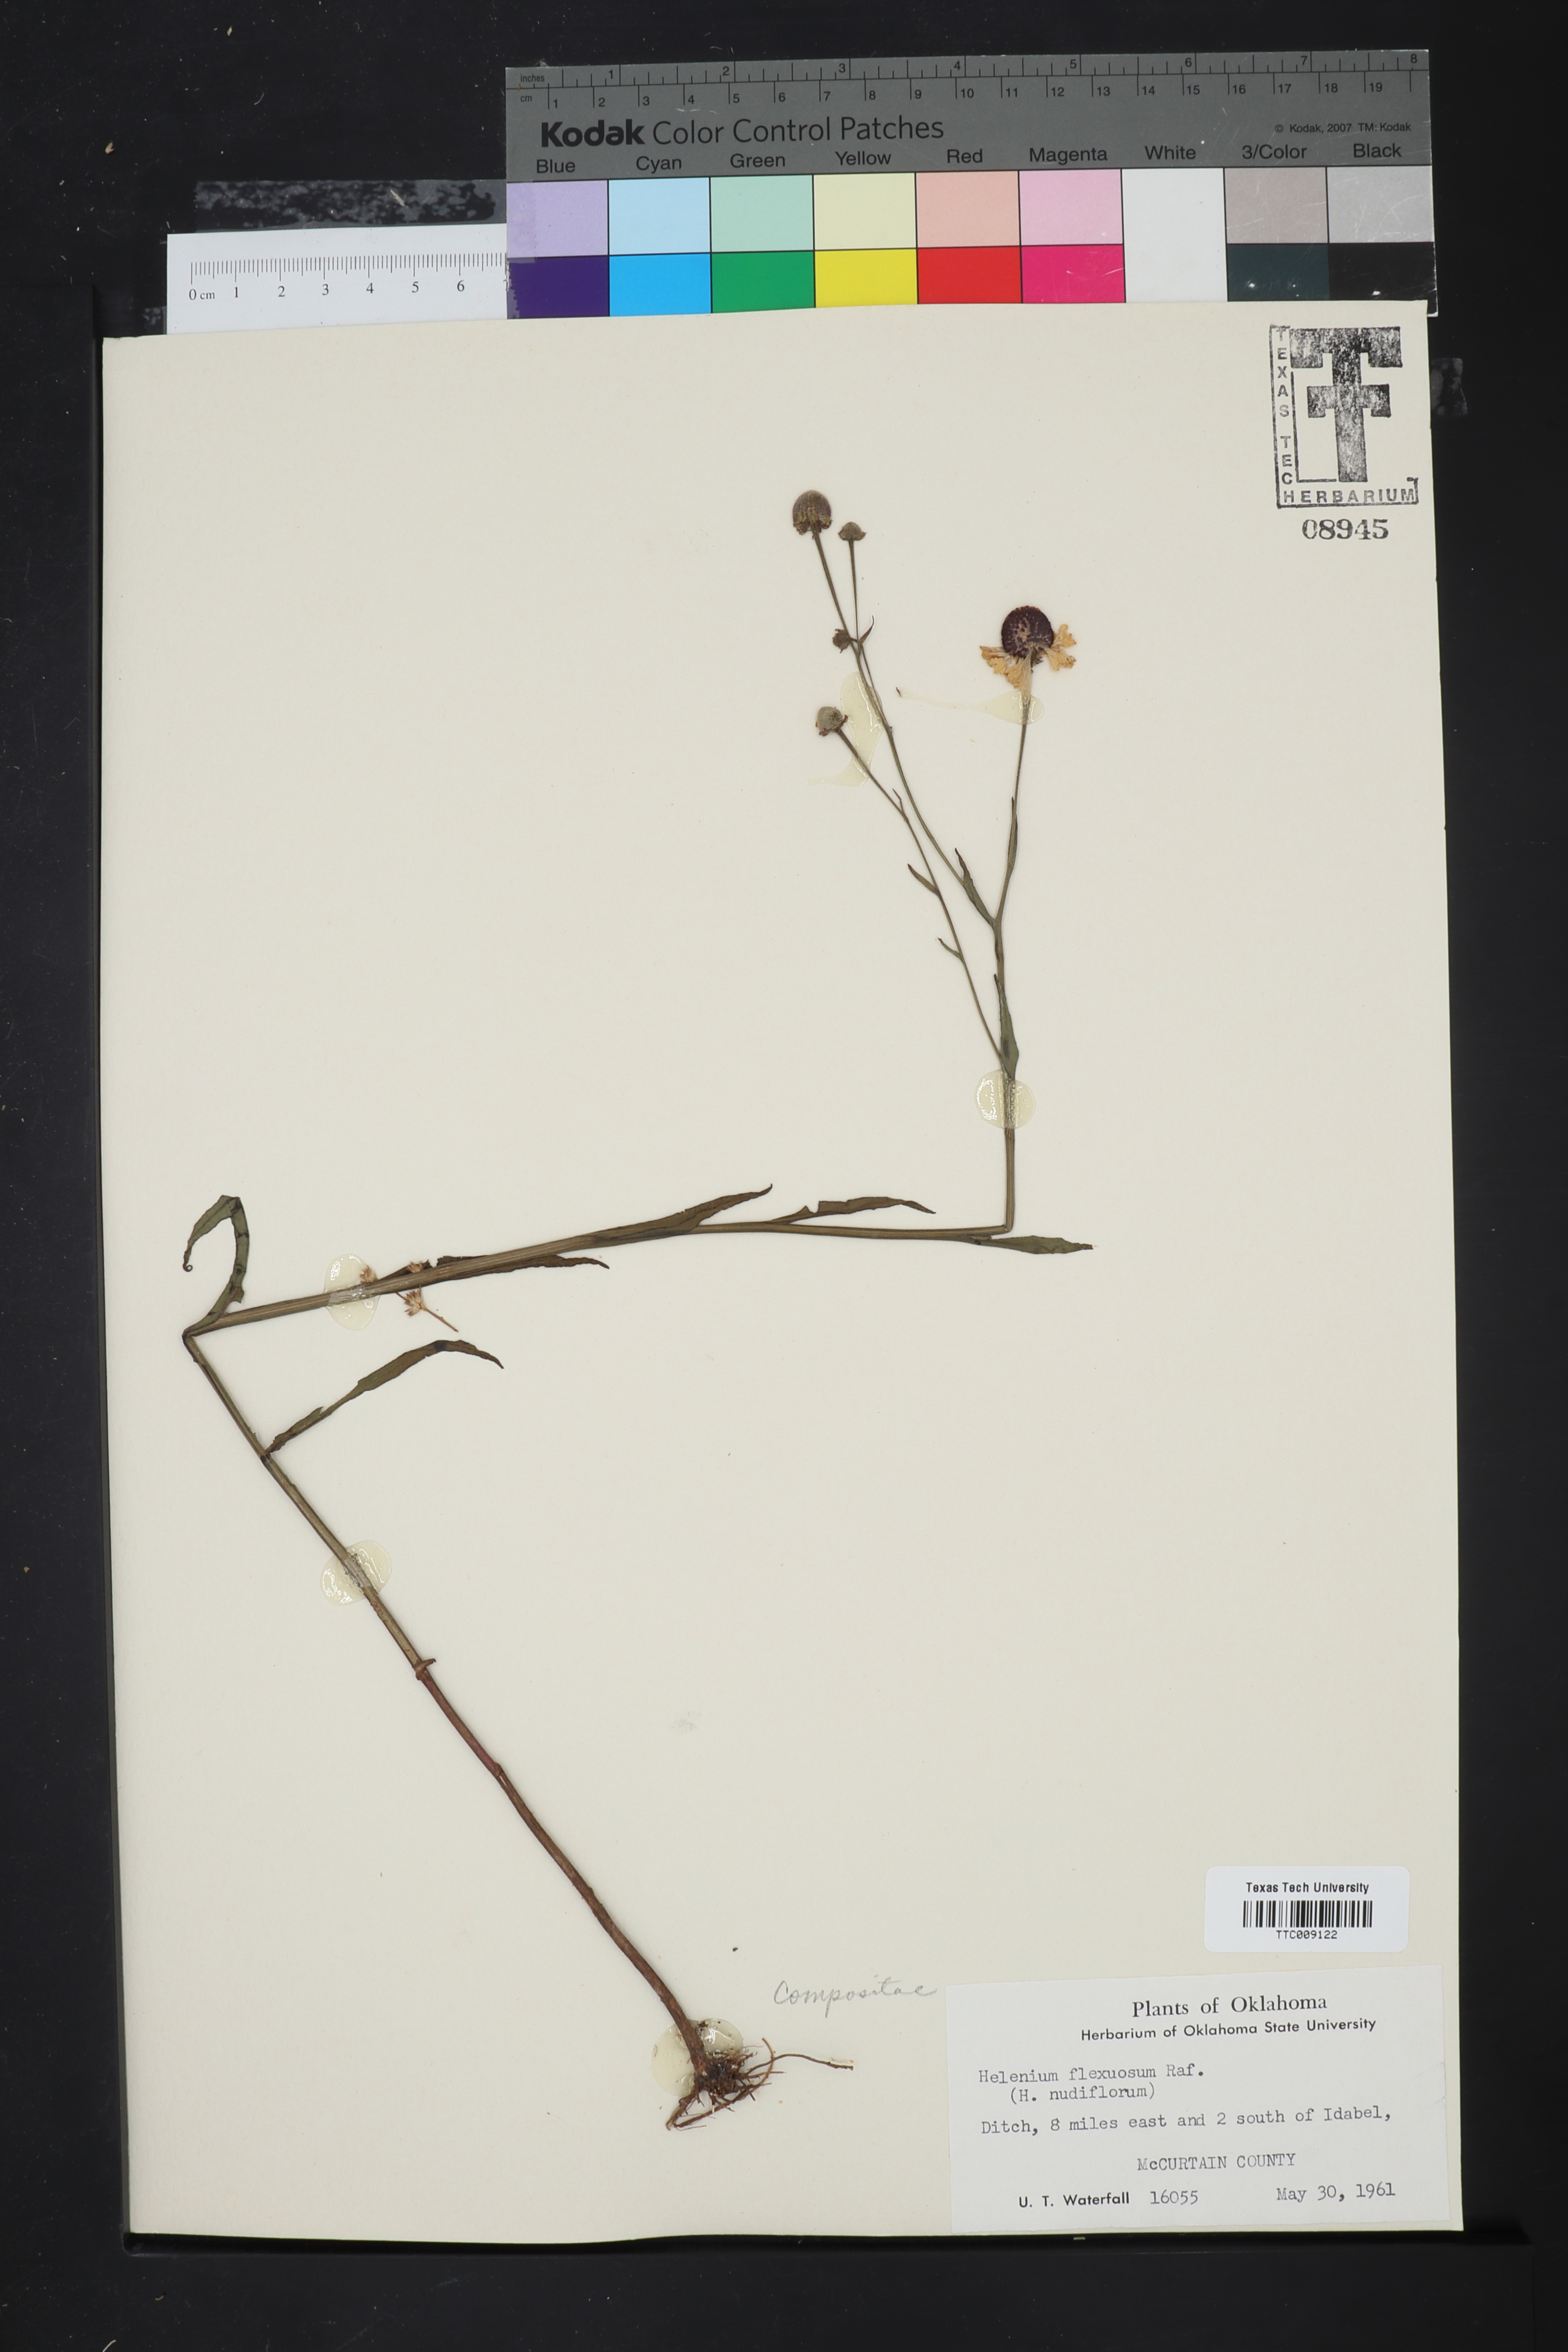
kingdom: Plantae
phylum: Tracheophyta
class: Magnoliopsida
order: Asterales
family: Asteraceae
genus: Helenium
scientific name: Helenium flexuosum
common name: Naked-flowered sneezeweed
